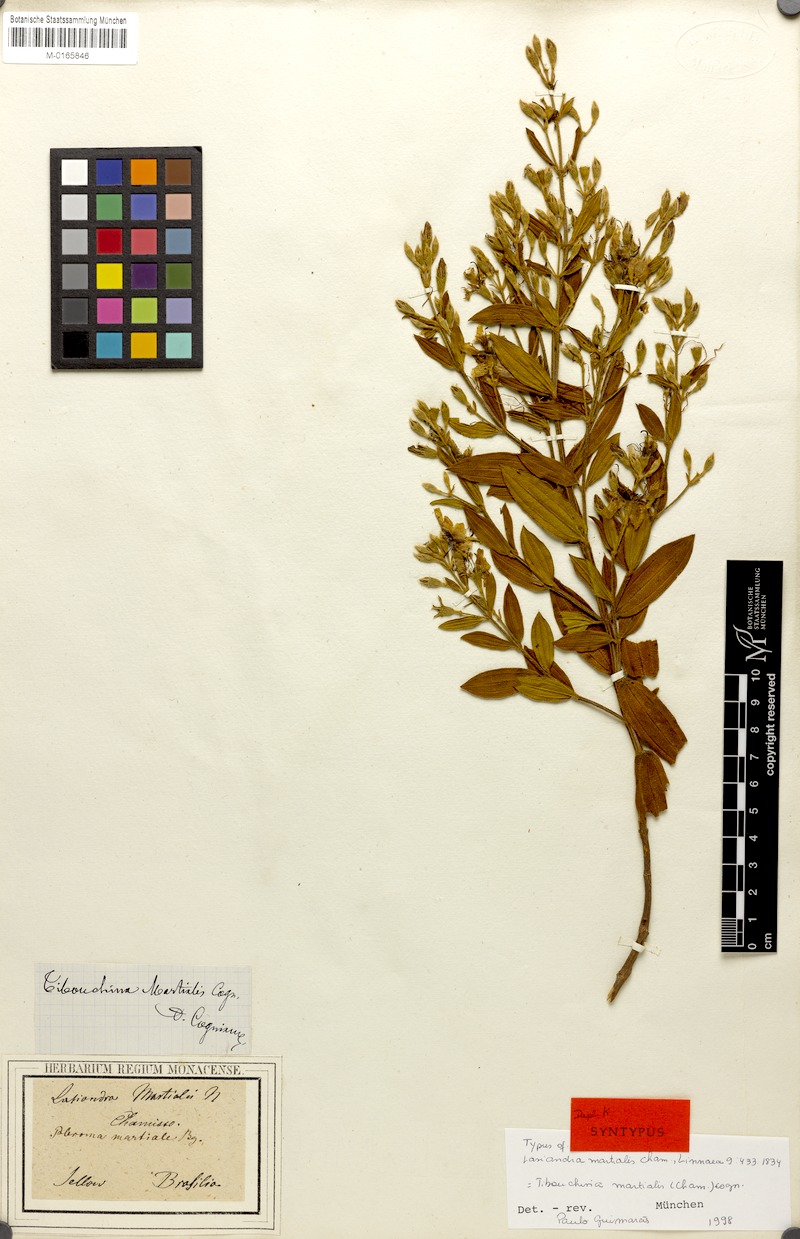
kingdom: Plantae
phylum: Tracheophyta
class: Magnoliopsida
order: Myrtales
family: Melastomataceae
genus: Pleroma
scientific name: Pleroma martiale
